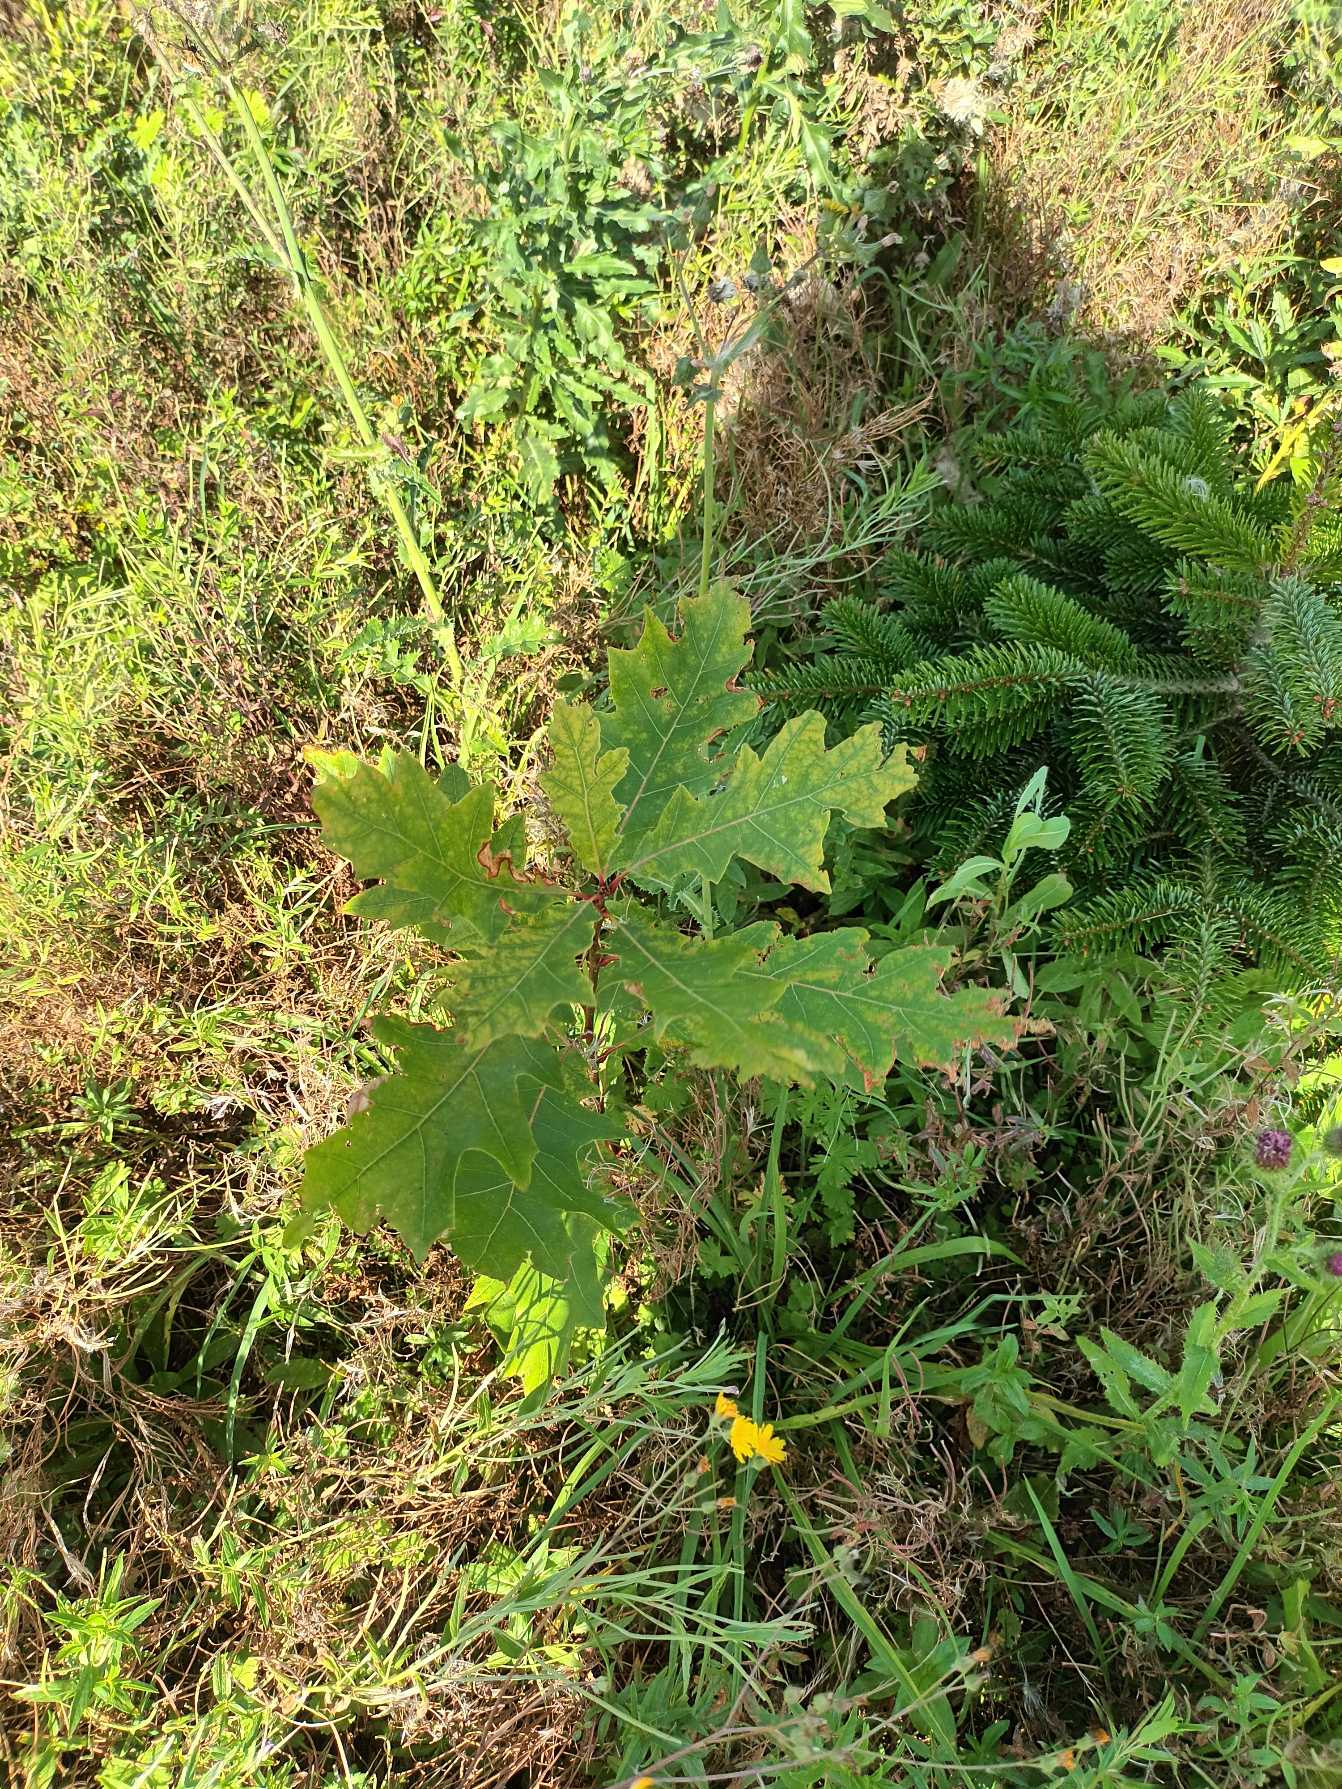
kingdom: Plantae
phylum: Tracheophyta
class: Magnoliopsida
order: Fagales
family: Fagaceae
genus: Quercus
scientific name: Quercus robur
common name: Stilk-eg/almindelig eg
